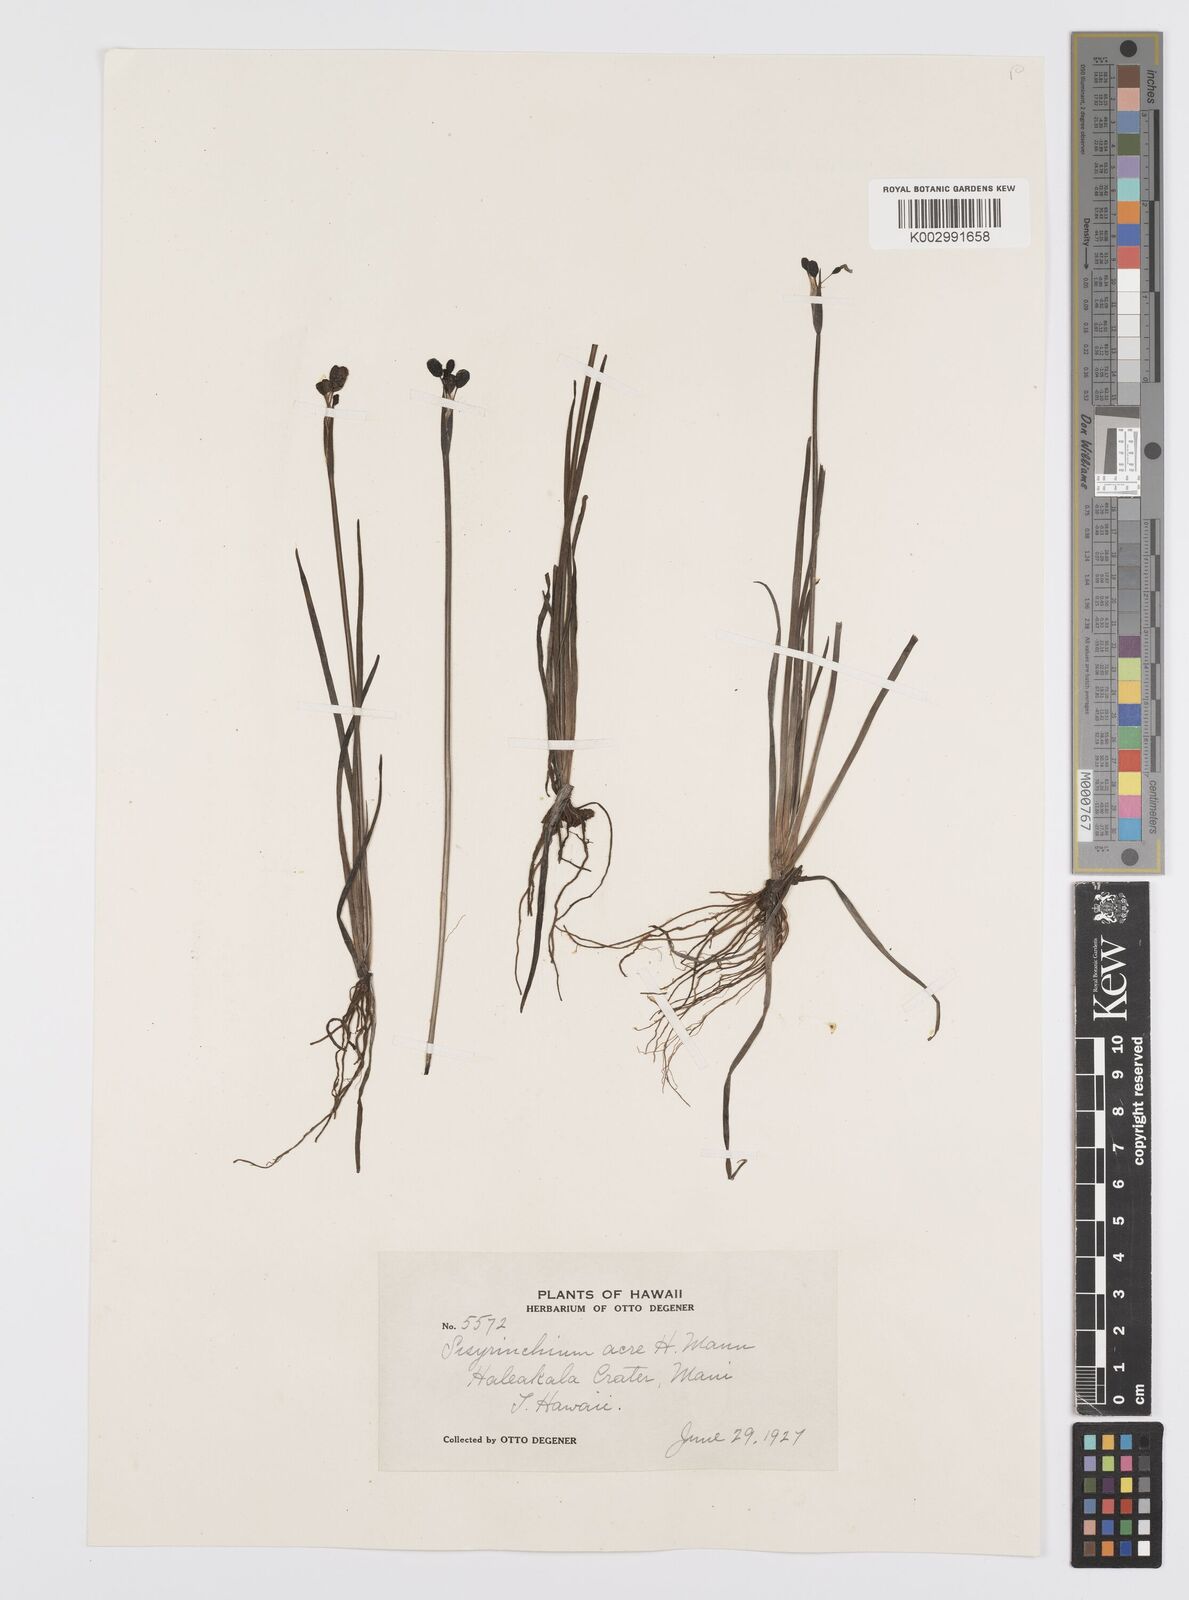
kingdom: Plantae
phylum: Tracheophyta
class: Liliopsida
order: Asparagales
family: Iridaceae
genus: Sisyrinchium
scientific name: Sisyrinchium acre
